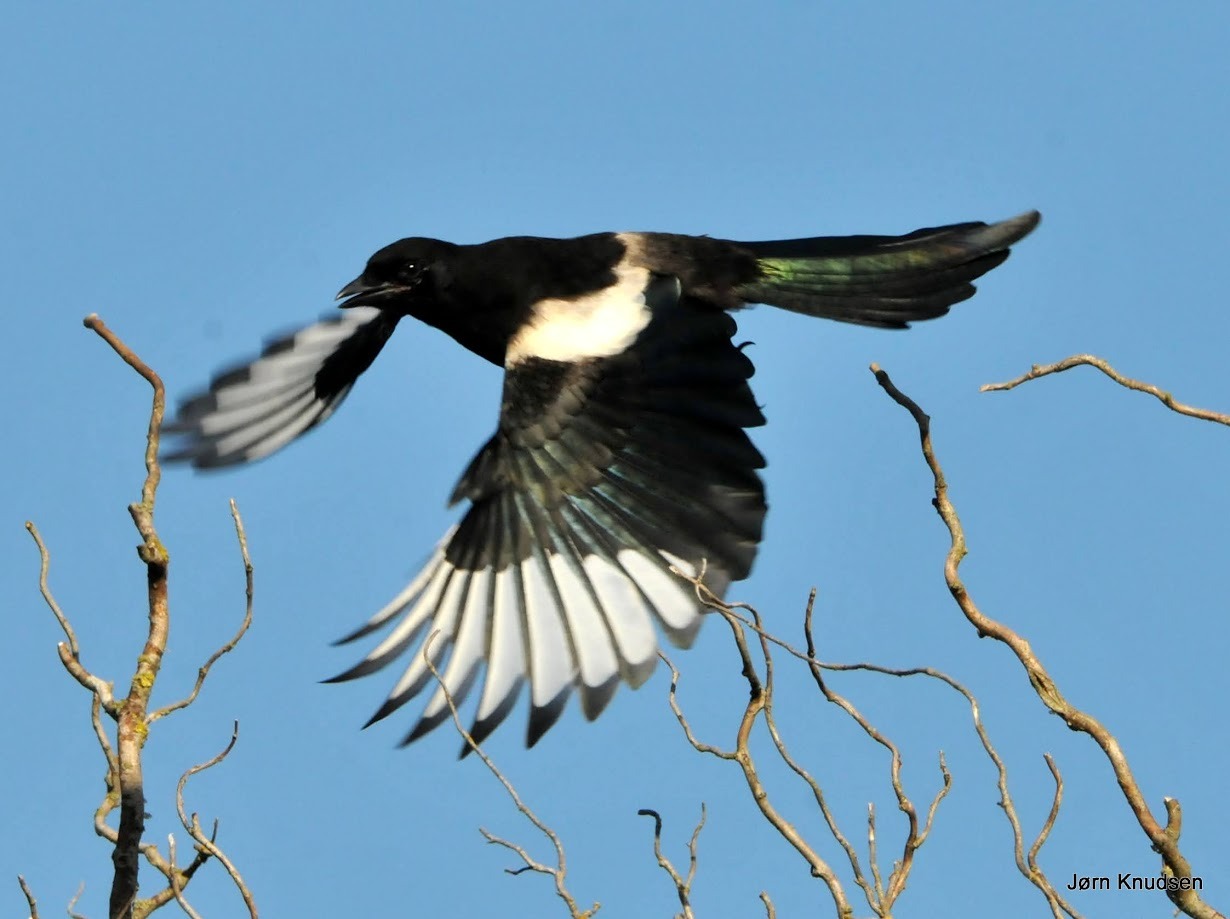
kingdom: Animalia
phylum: Chordata
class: Aves
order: Passeriformes
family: Corvidae
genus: Pica
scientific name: Pica pica
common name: Husskade
